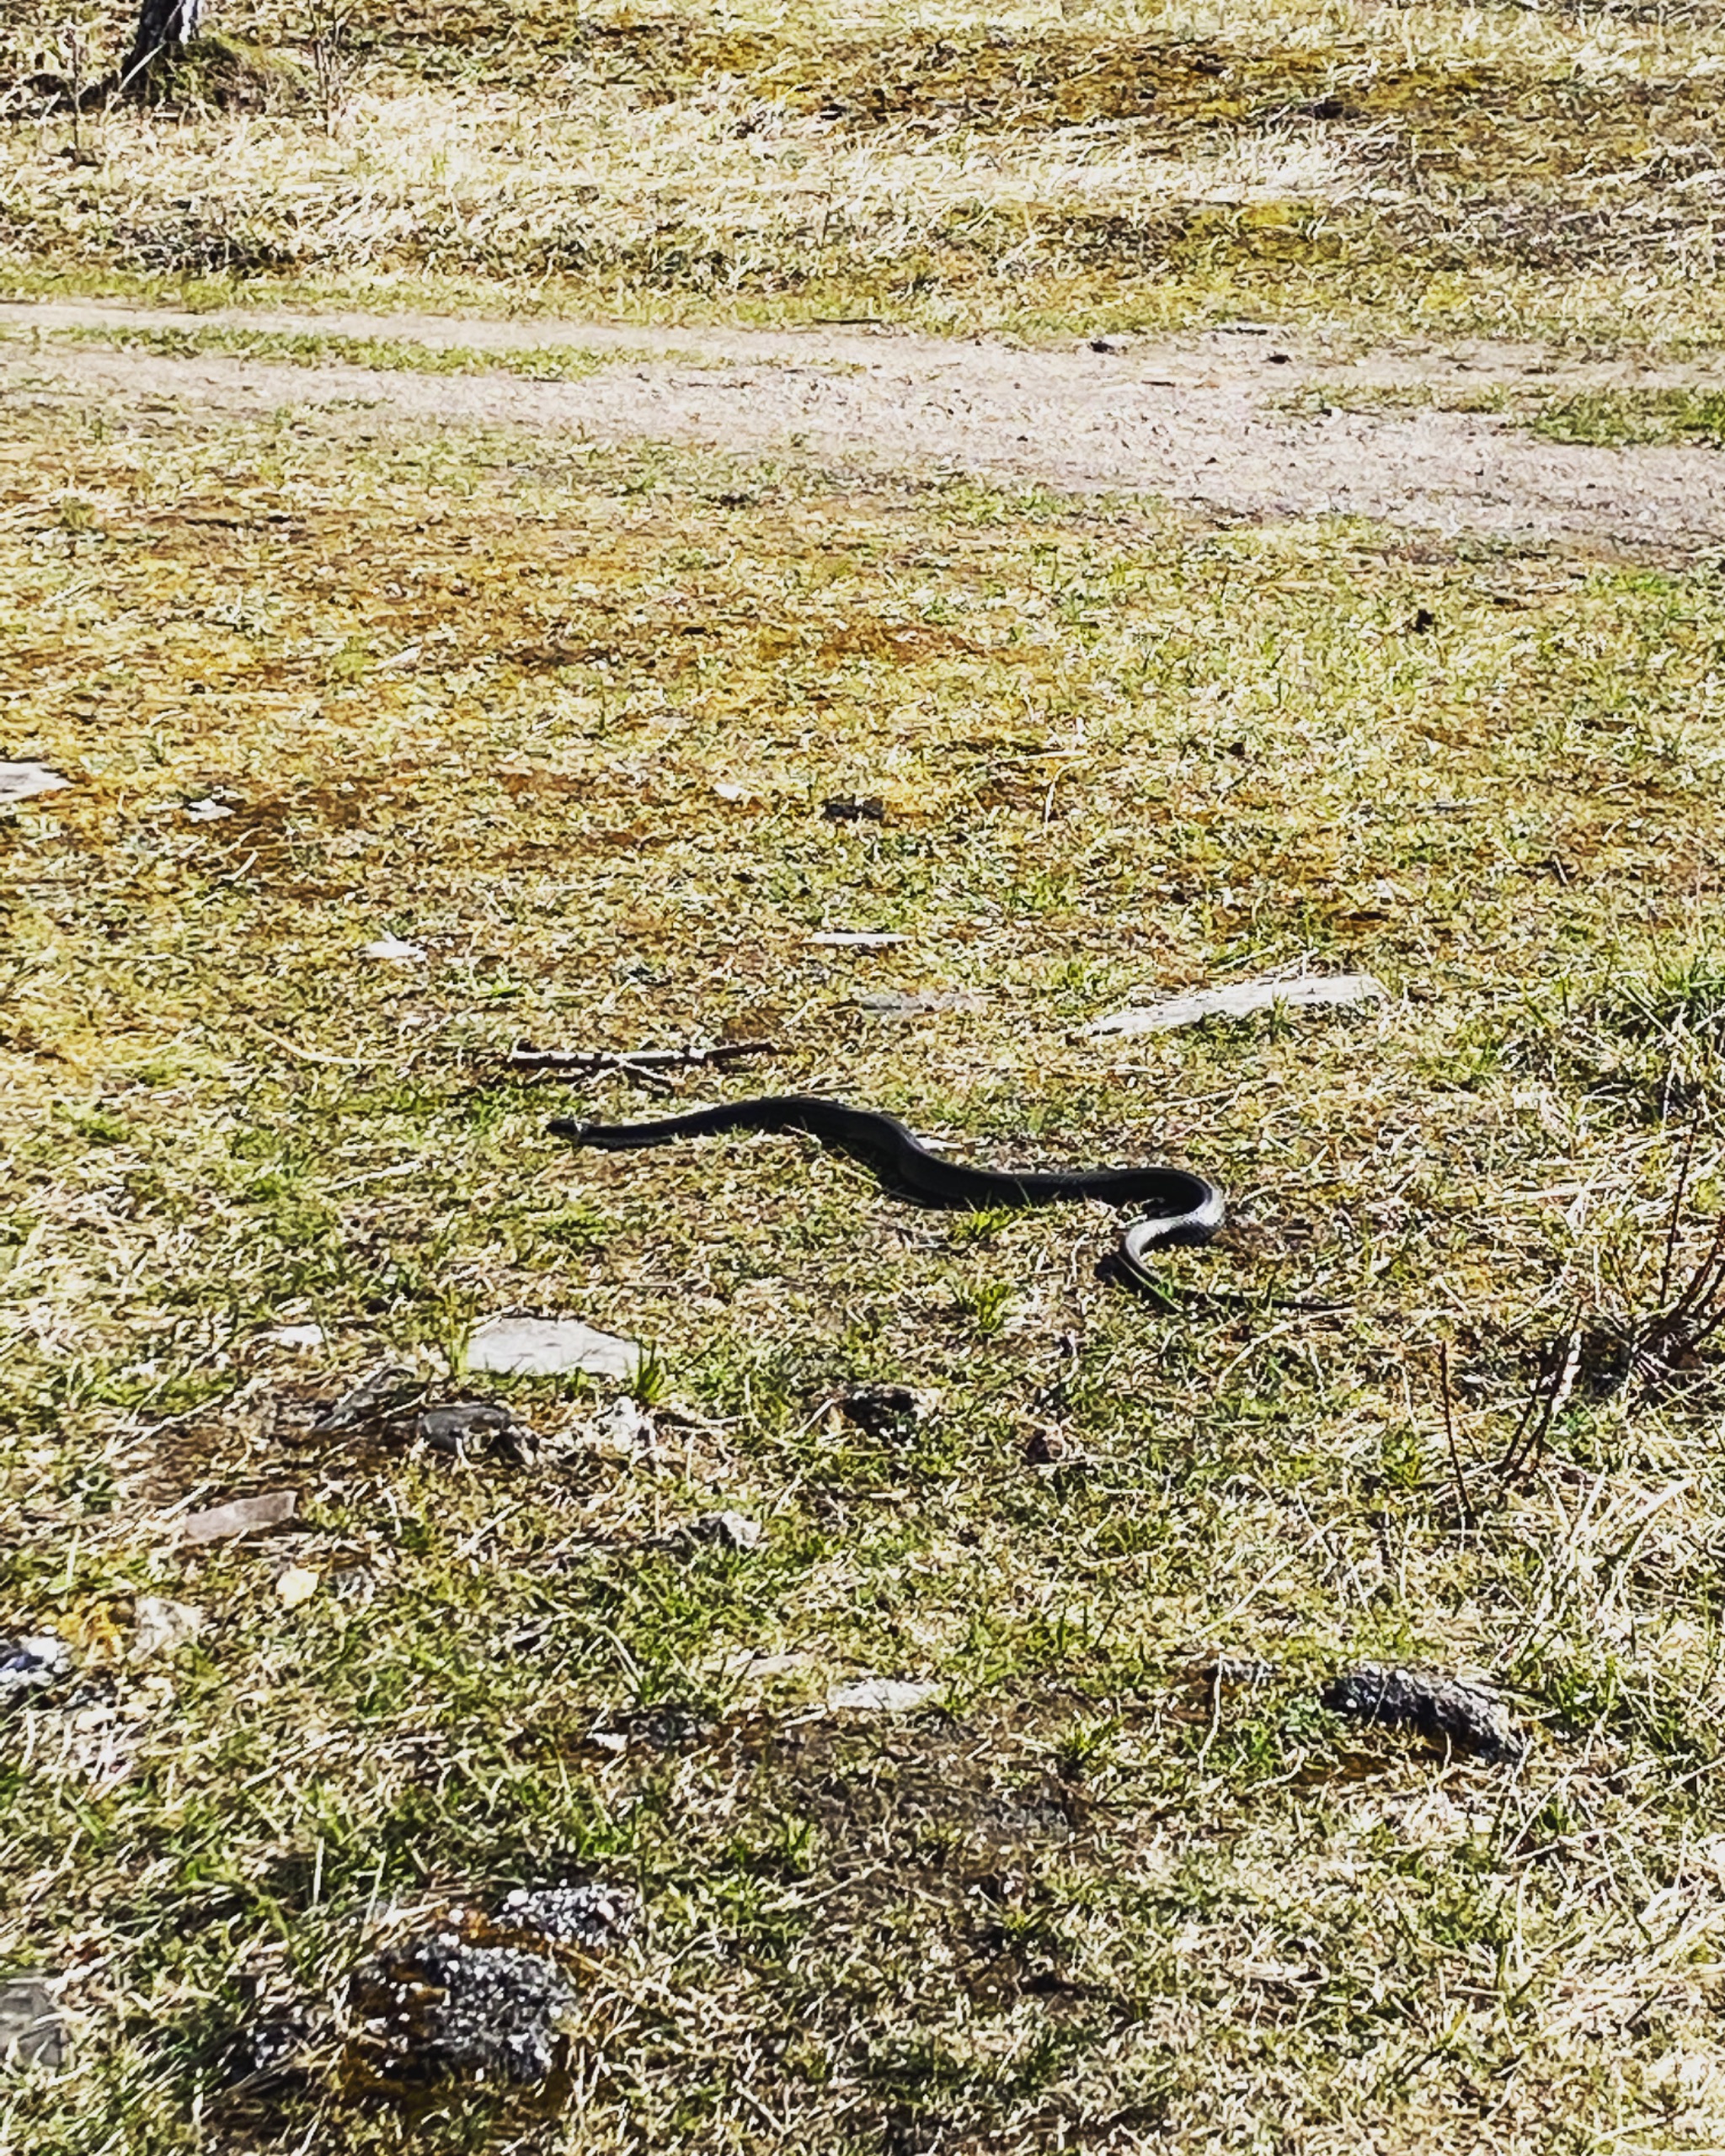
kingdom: Animalia
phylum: Chordata
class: Squamata
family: Colubridae
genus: Natrix
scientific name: Natrix natrix
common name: Snog
